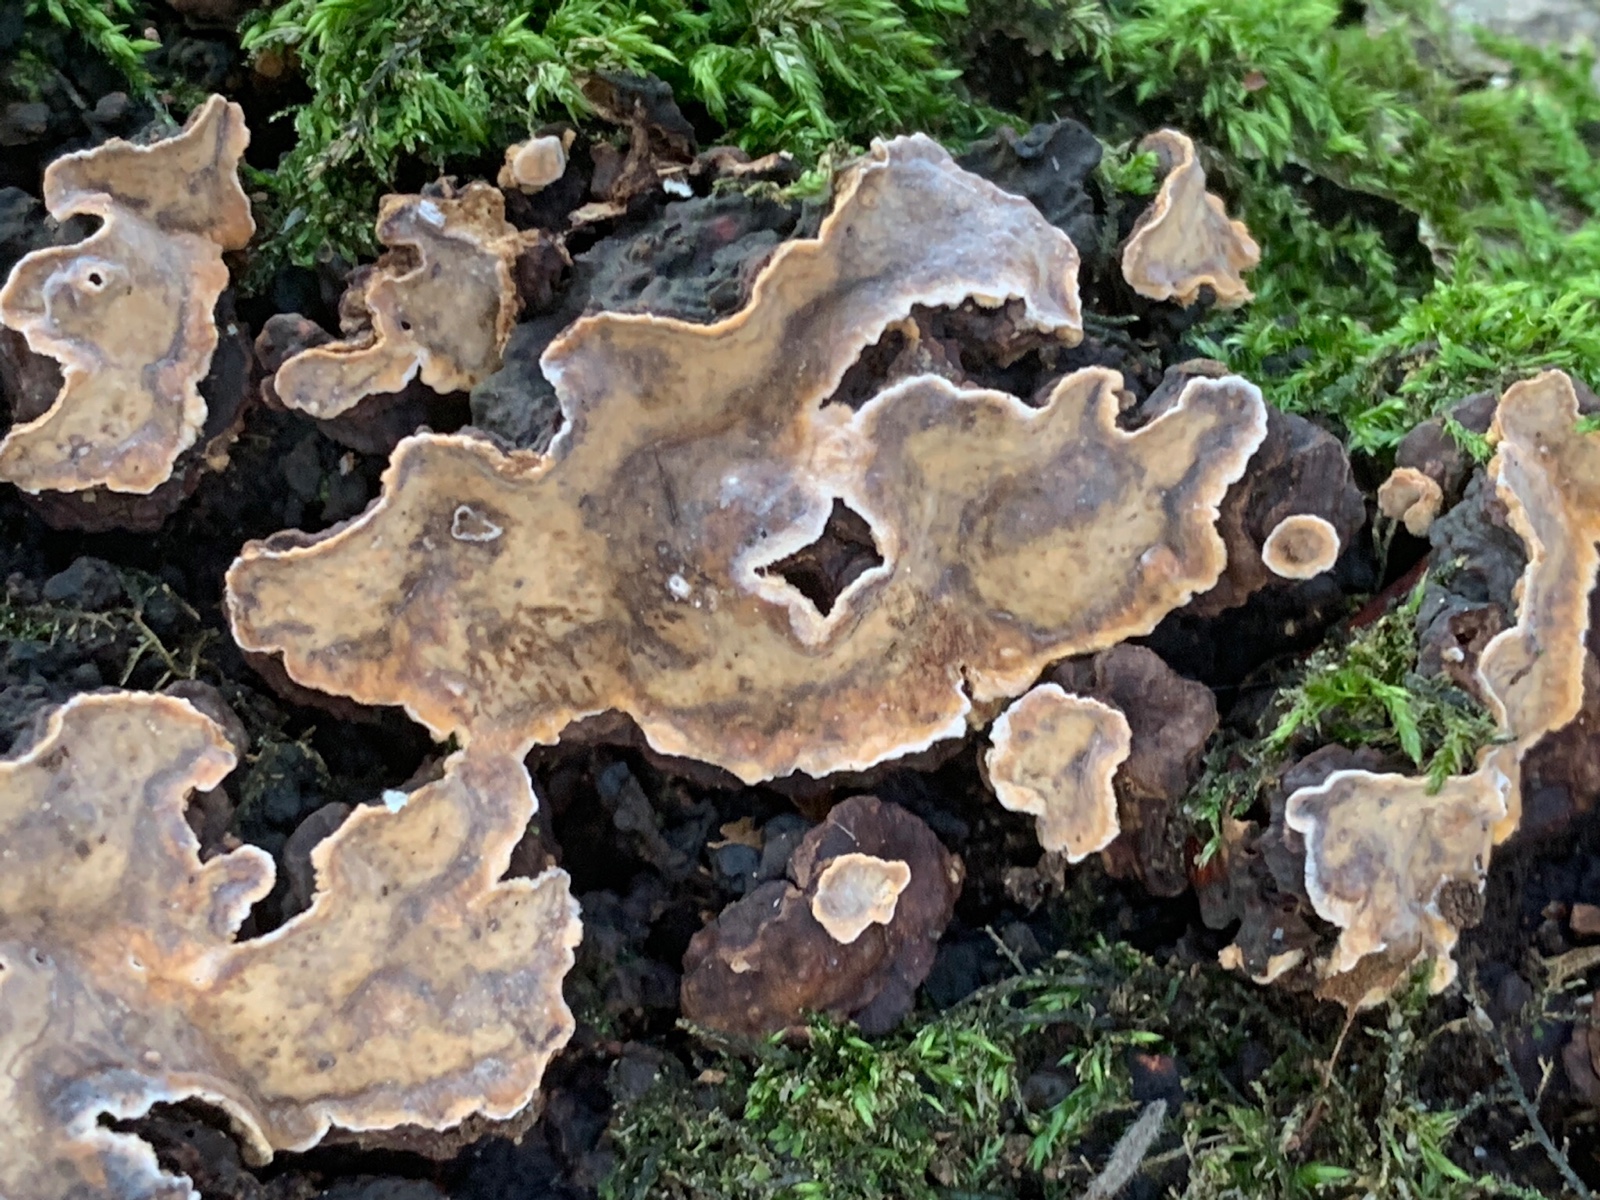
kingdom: Fungi
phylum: Basidiomycota
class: Agaricomycetes
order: Russulales
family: Stereaceae
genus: Stereum
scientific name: Stereum rugosum
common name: rynket lædersvamp
